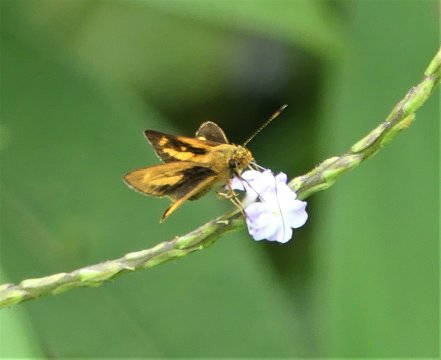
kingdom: Animalia
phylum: Arthropoda
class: Insecta
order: Lepidoptera
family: Hesperiidae
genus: Anthoptus
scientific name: Anthoptus epictetus
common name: Trailside Skipper
